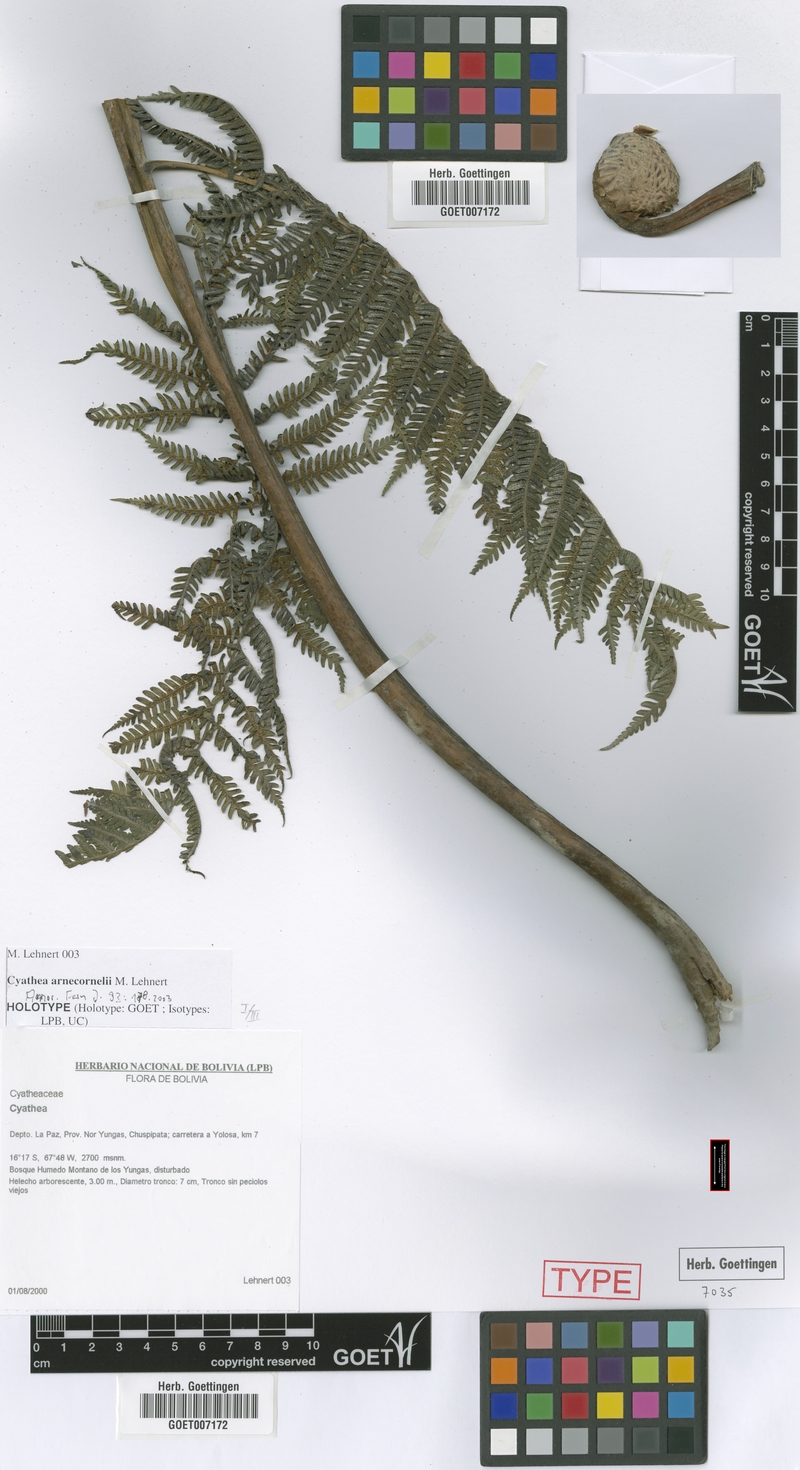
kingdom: Plantae
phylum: Tracheophyta
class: Polypodiopsida
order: Cyatheales
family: Cyatheaceae
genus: Cyathea
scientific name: Cyathea arnecornelii
